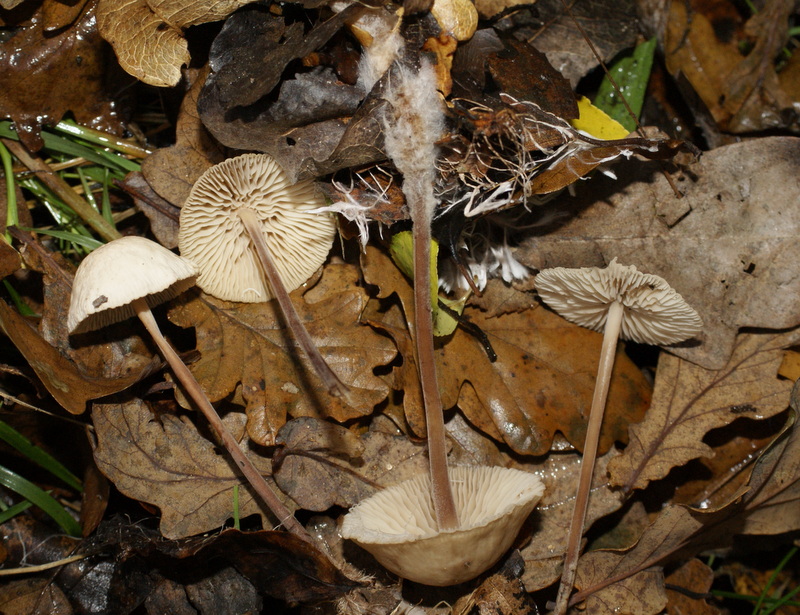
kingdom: Fungi
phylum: Basidiomycota
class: Agaricomycetes
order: Agaricales
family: Omphalotaceae
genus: Mycetinis
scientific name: Mycetinis querceus
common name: ege-løghat
